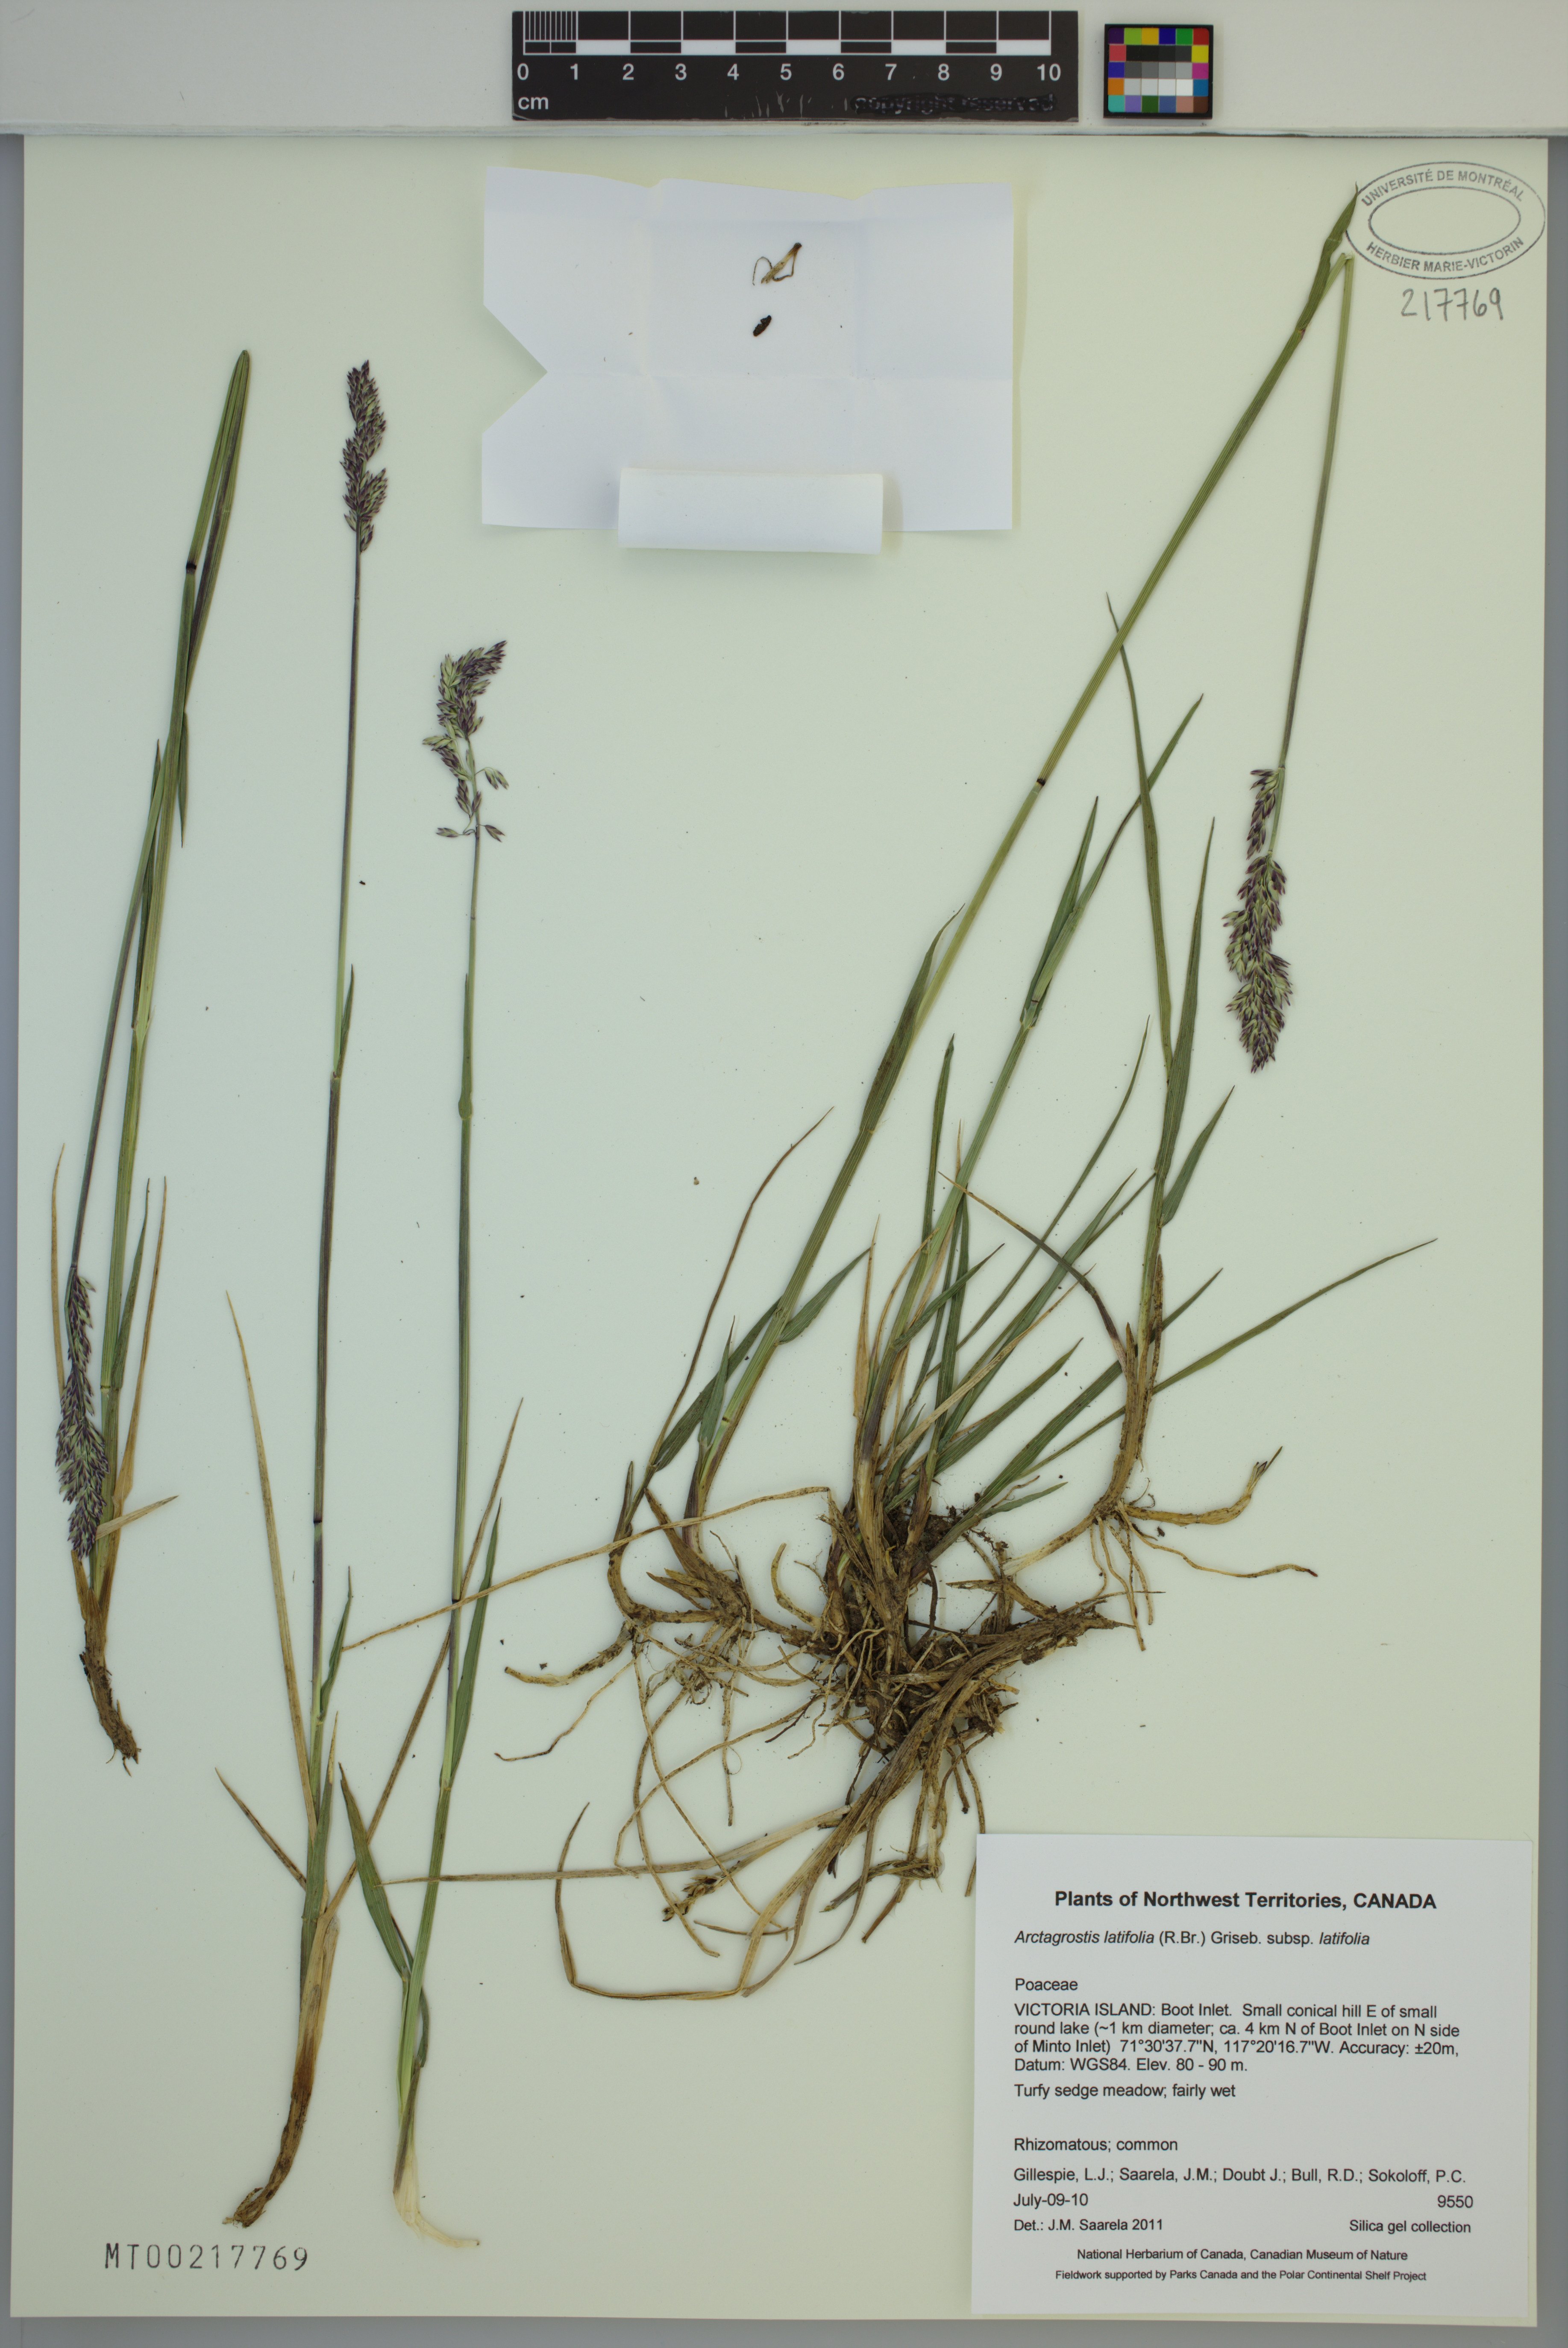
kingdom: Plantae
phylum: Tracheophyta
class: Liliopsida
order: Poales
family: Poaceae
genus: Arctagrostis
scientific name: Arctagrostis latifolia
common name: Arctic grass
